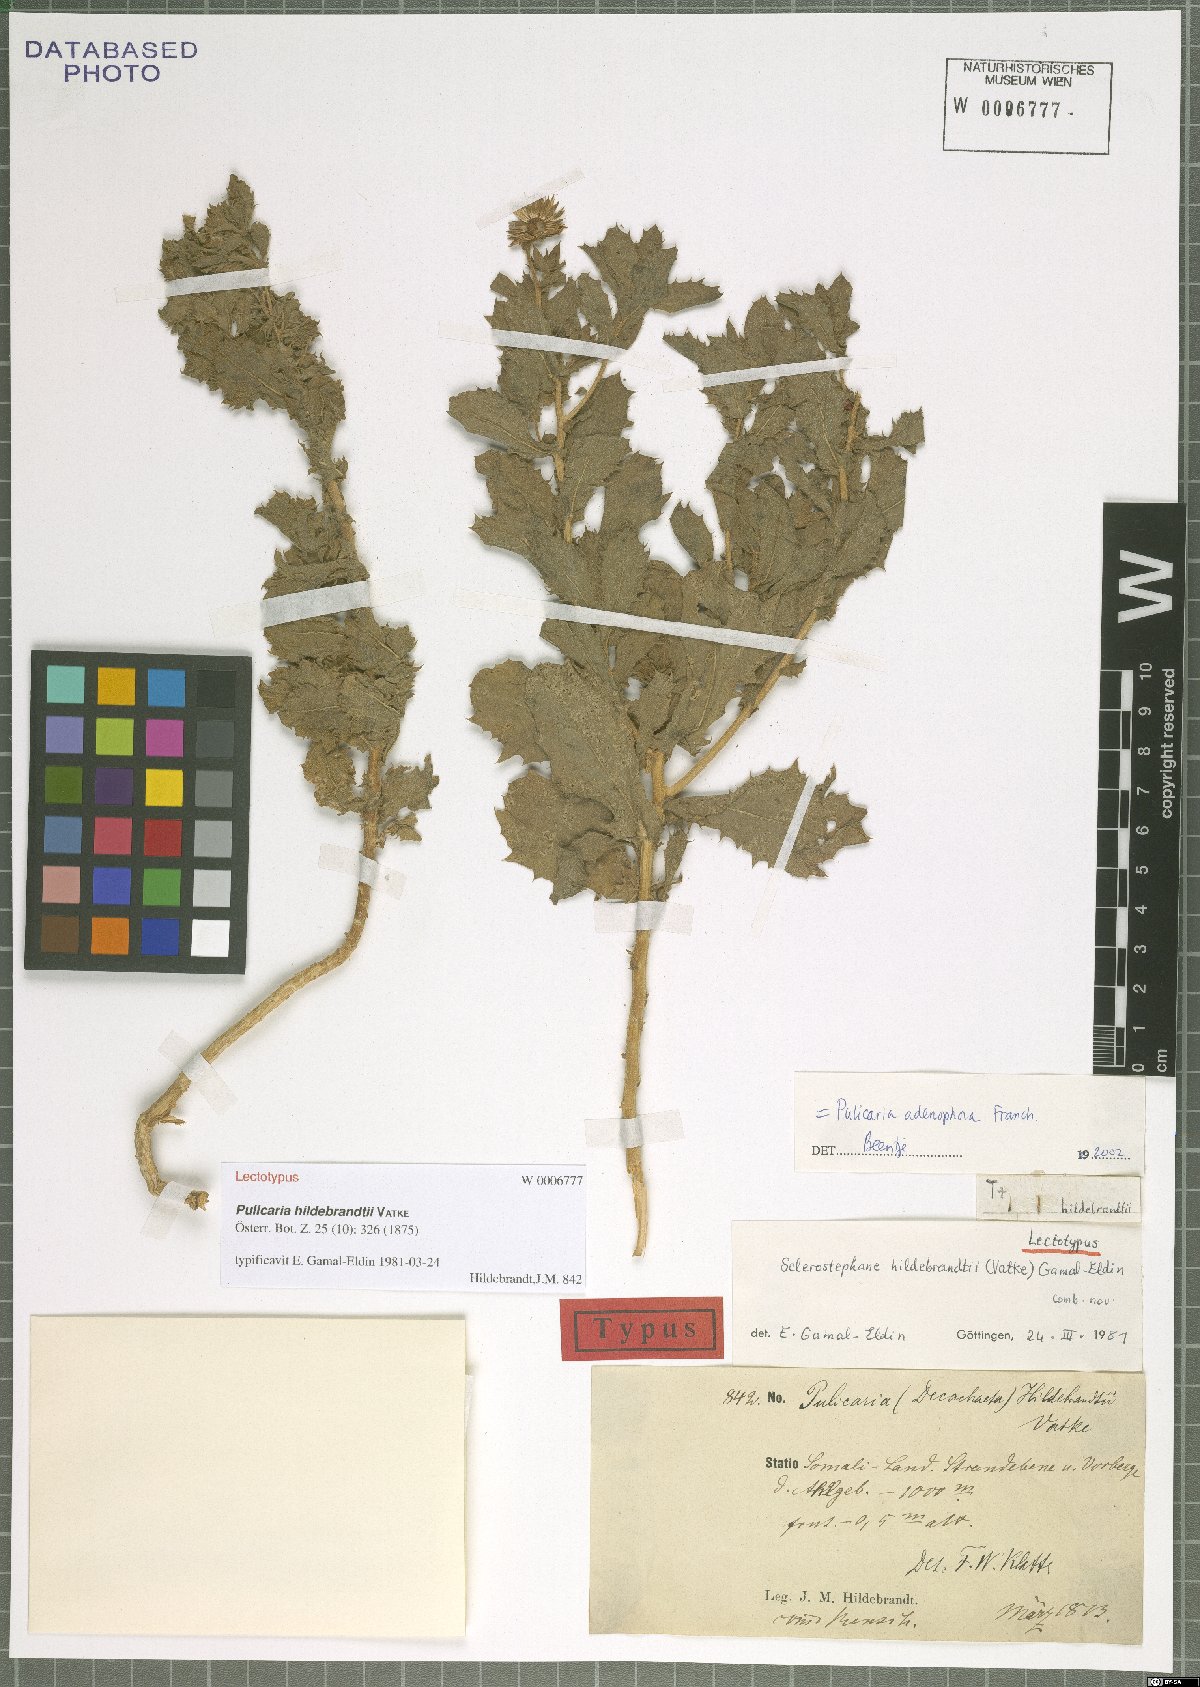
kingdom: Plantae
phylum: Tracheophyta
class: Magnoliopsida
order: Asterales
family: Asteraceae
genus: Pulicaria
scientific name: Pulicaria hildebrandtii
